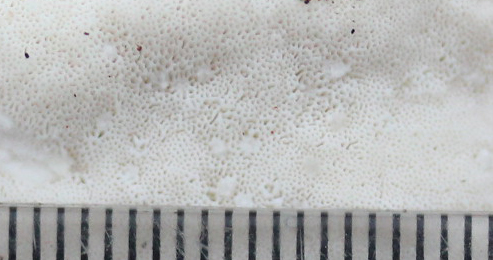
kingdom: Fungi
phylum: Basidiomycota
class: Agaricomycetes
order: Polyporales
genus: Amaropostia
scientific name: Amaropostia stiptica
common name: bitter kødporesvamp
